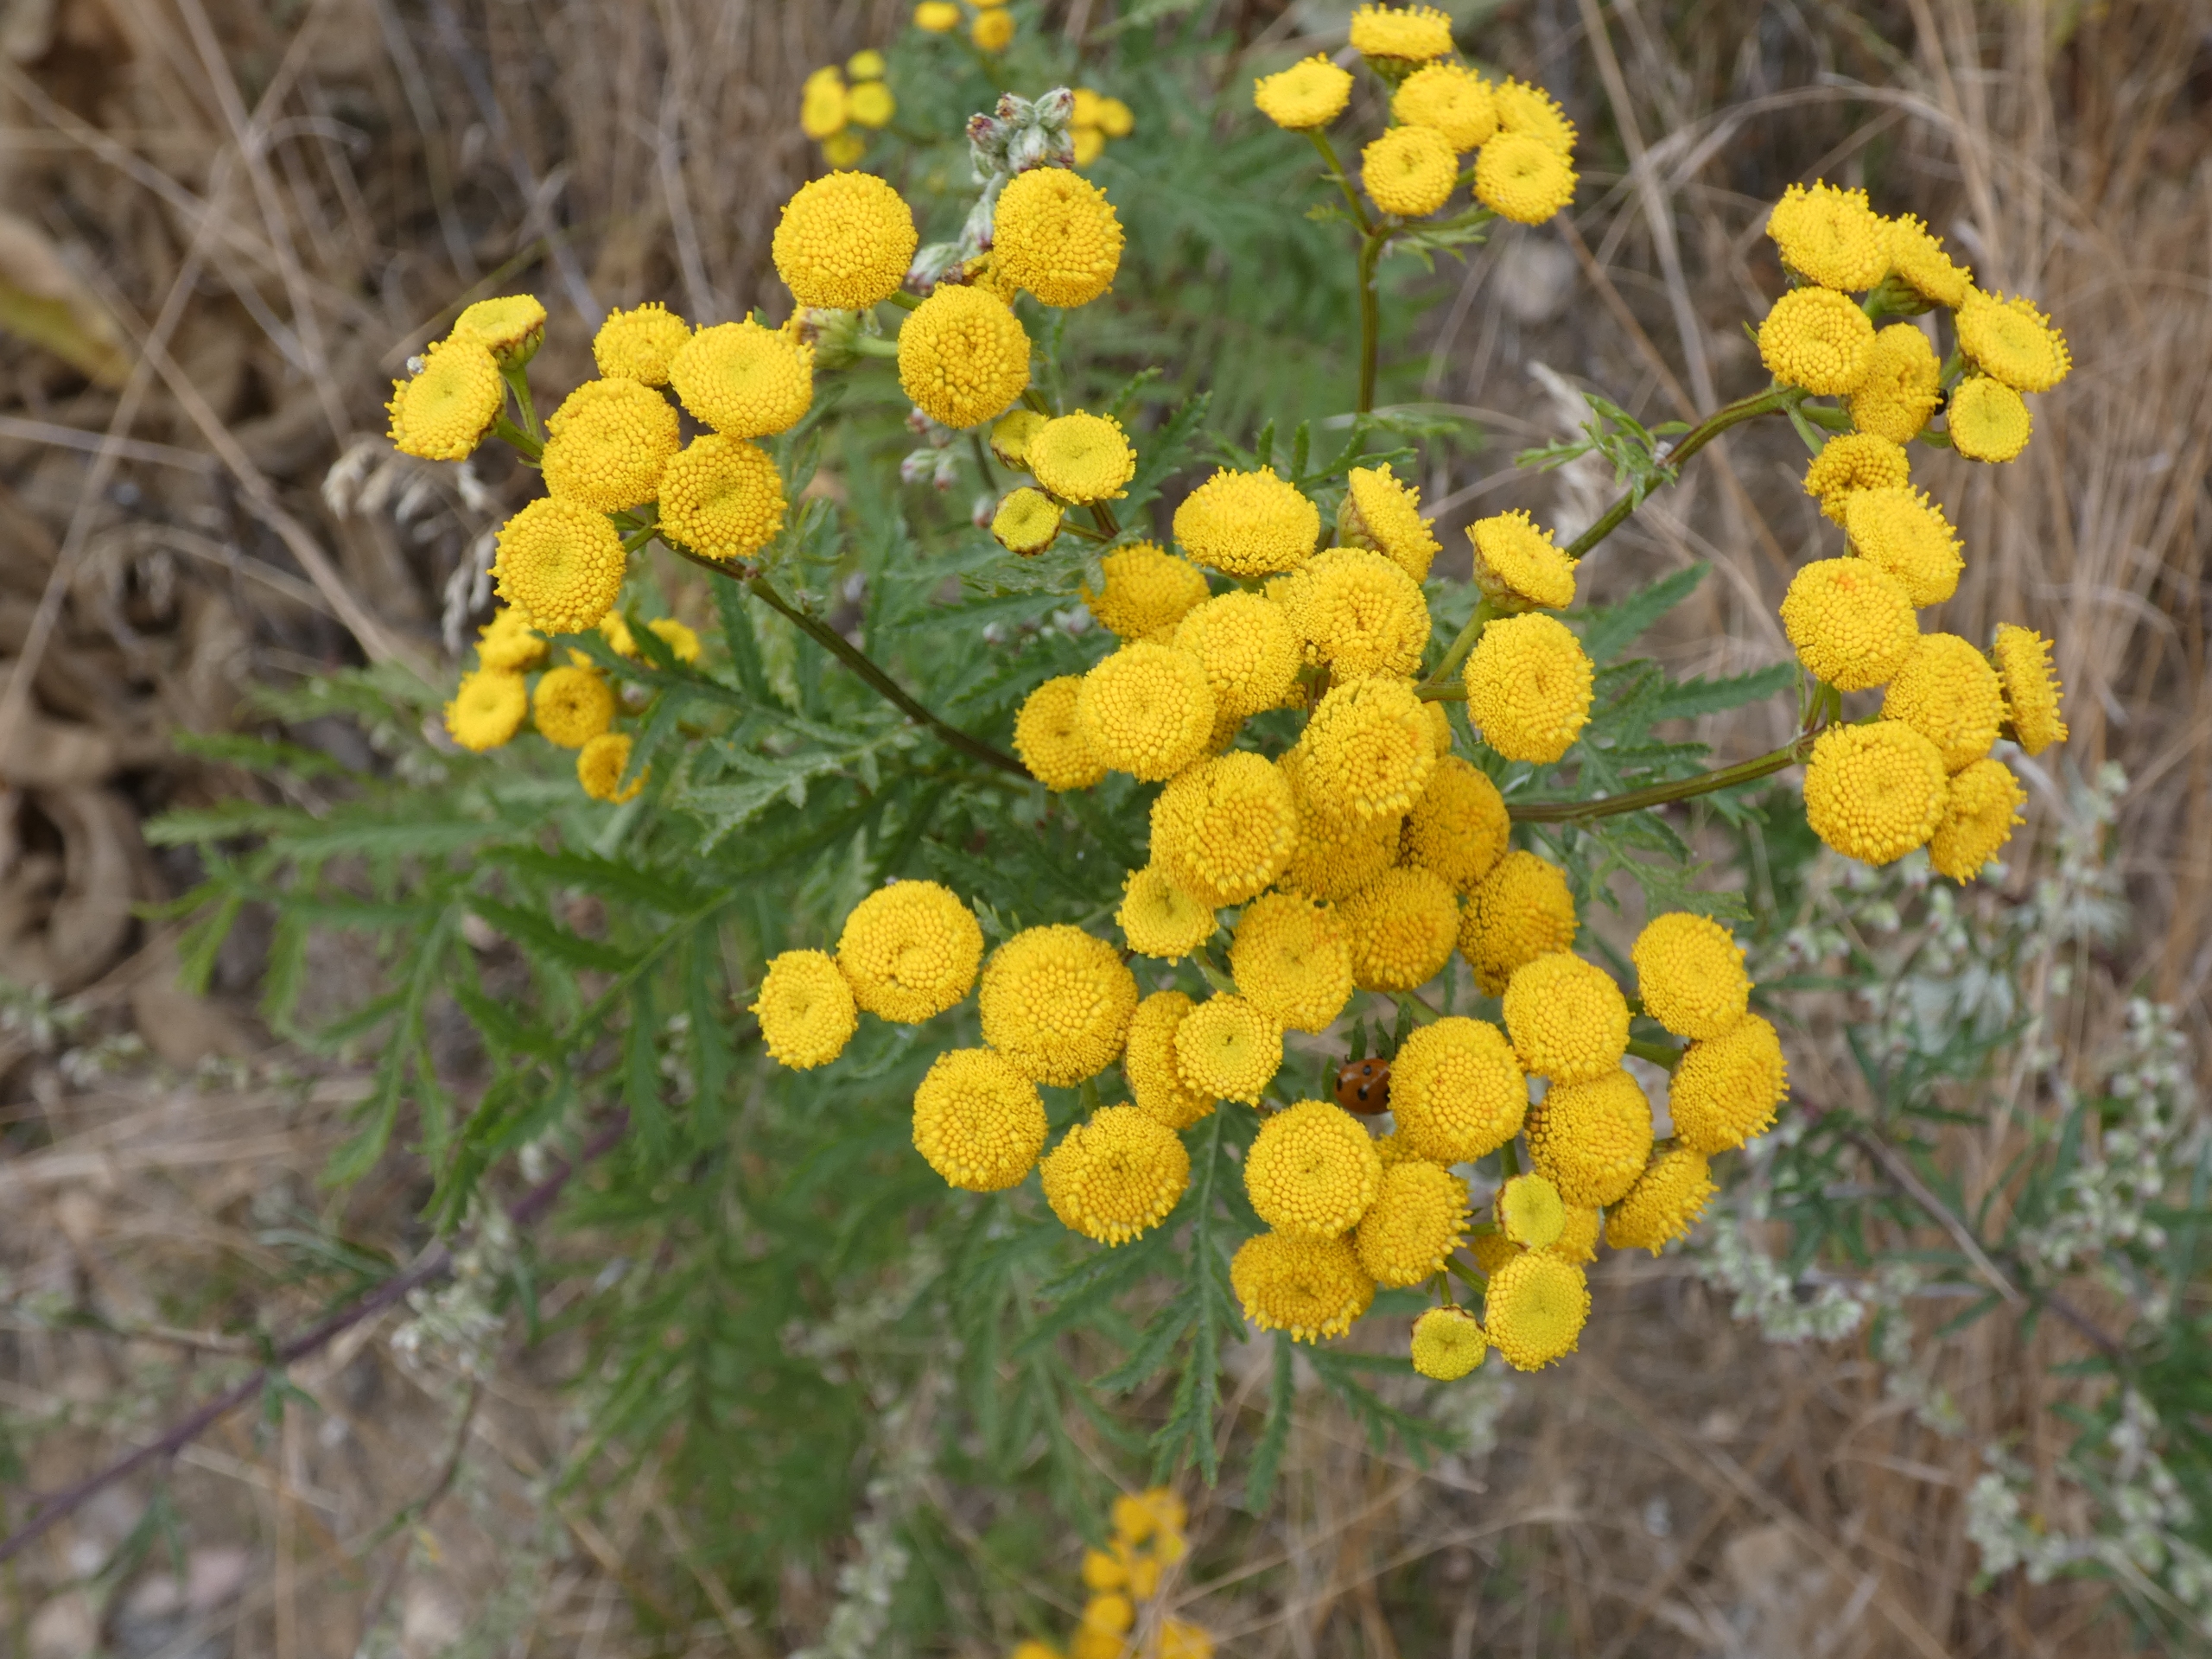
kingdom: Plantae
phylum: Tracheophyta
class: Magnoliopsida
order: Asterales
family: Asteraceae
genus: Tanacetum
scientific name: Tanacetum vulgare
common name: Rejnfan
